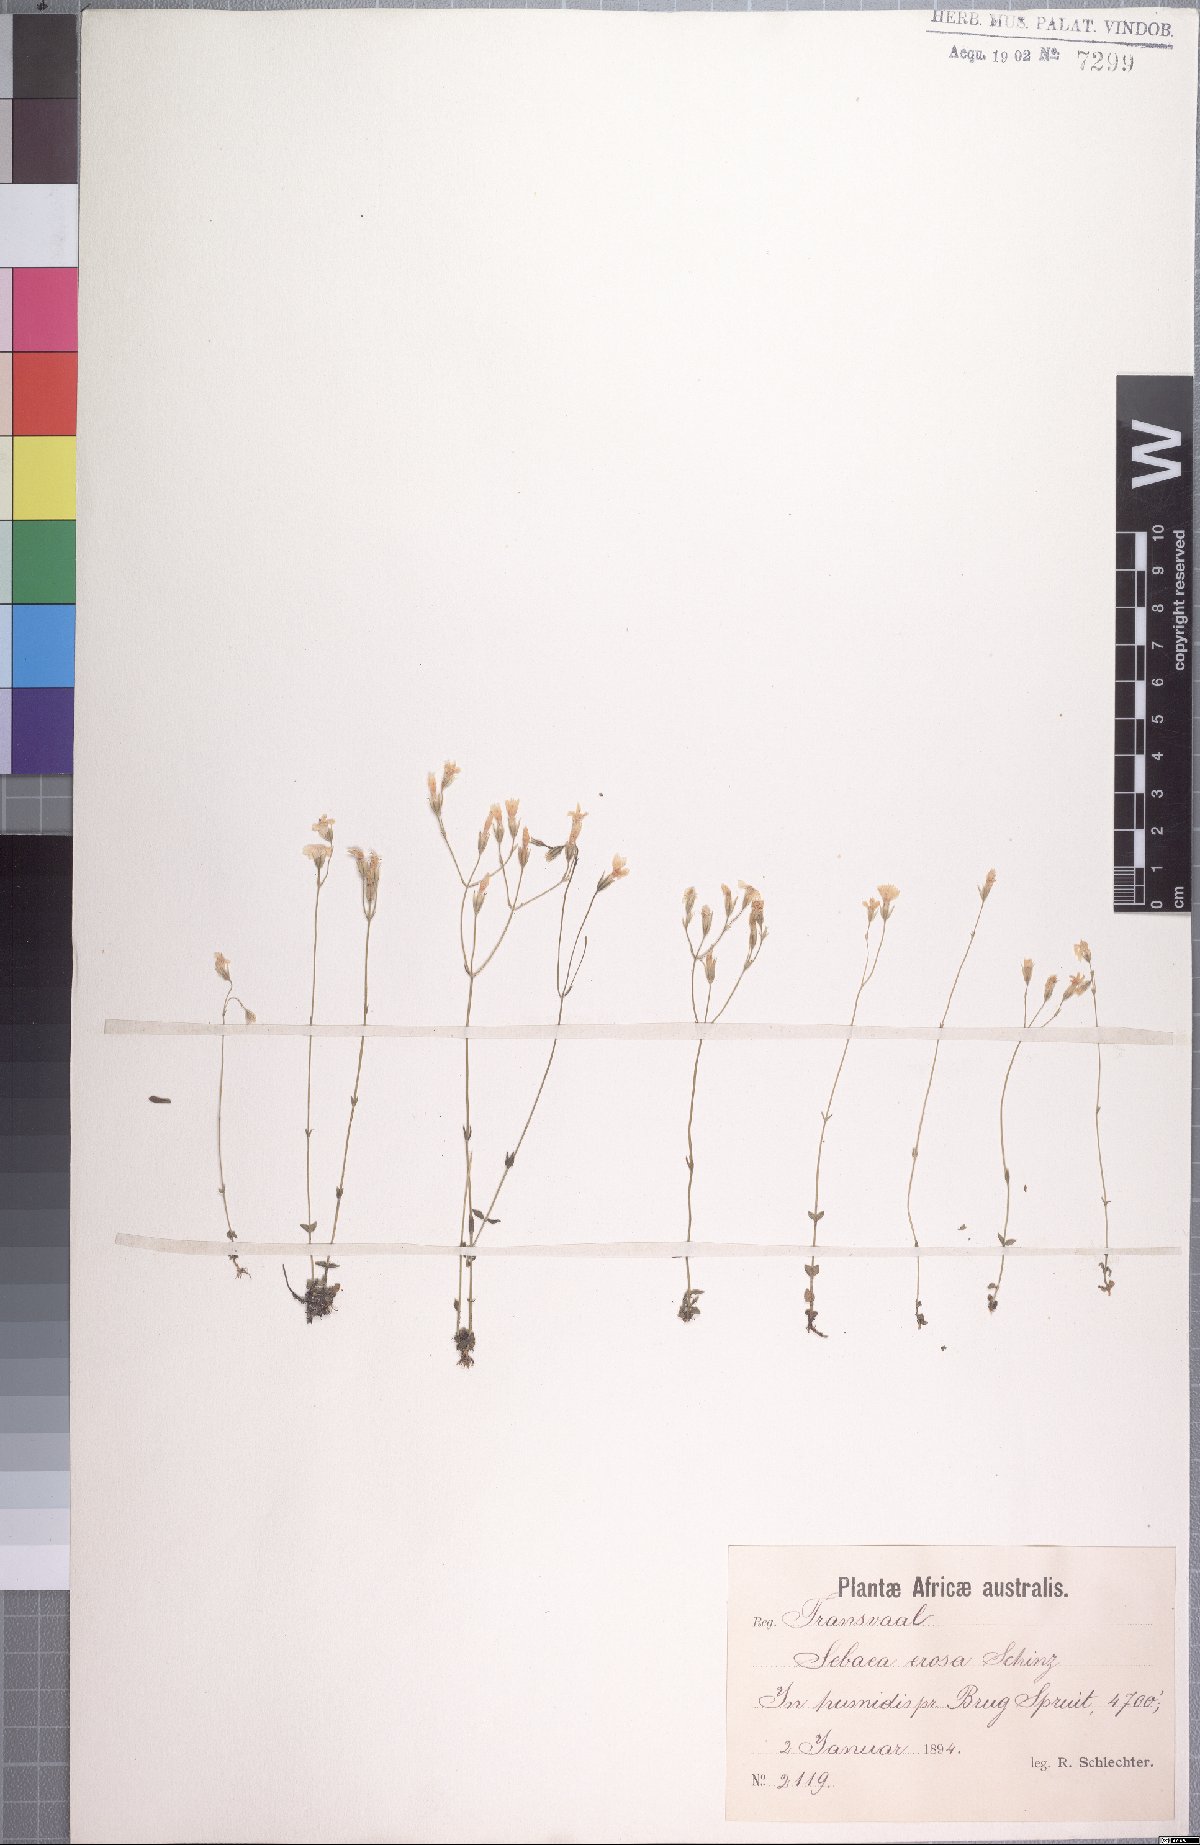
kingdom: Plantae
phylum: Tracheophyta
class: Magnoliopsida
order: Gentianales
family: Gentianaceae
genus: Sebaea
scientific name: Sebaea erosa
